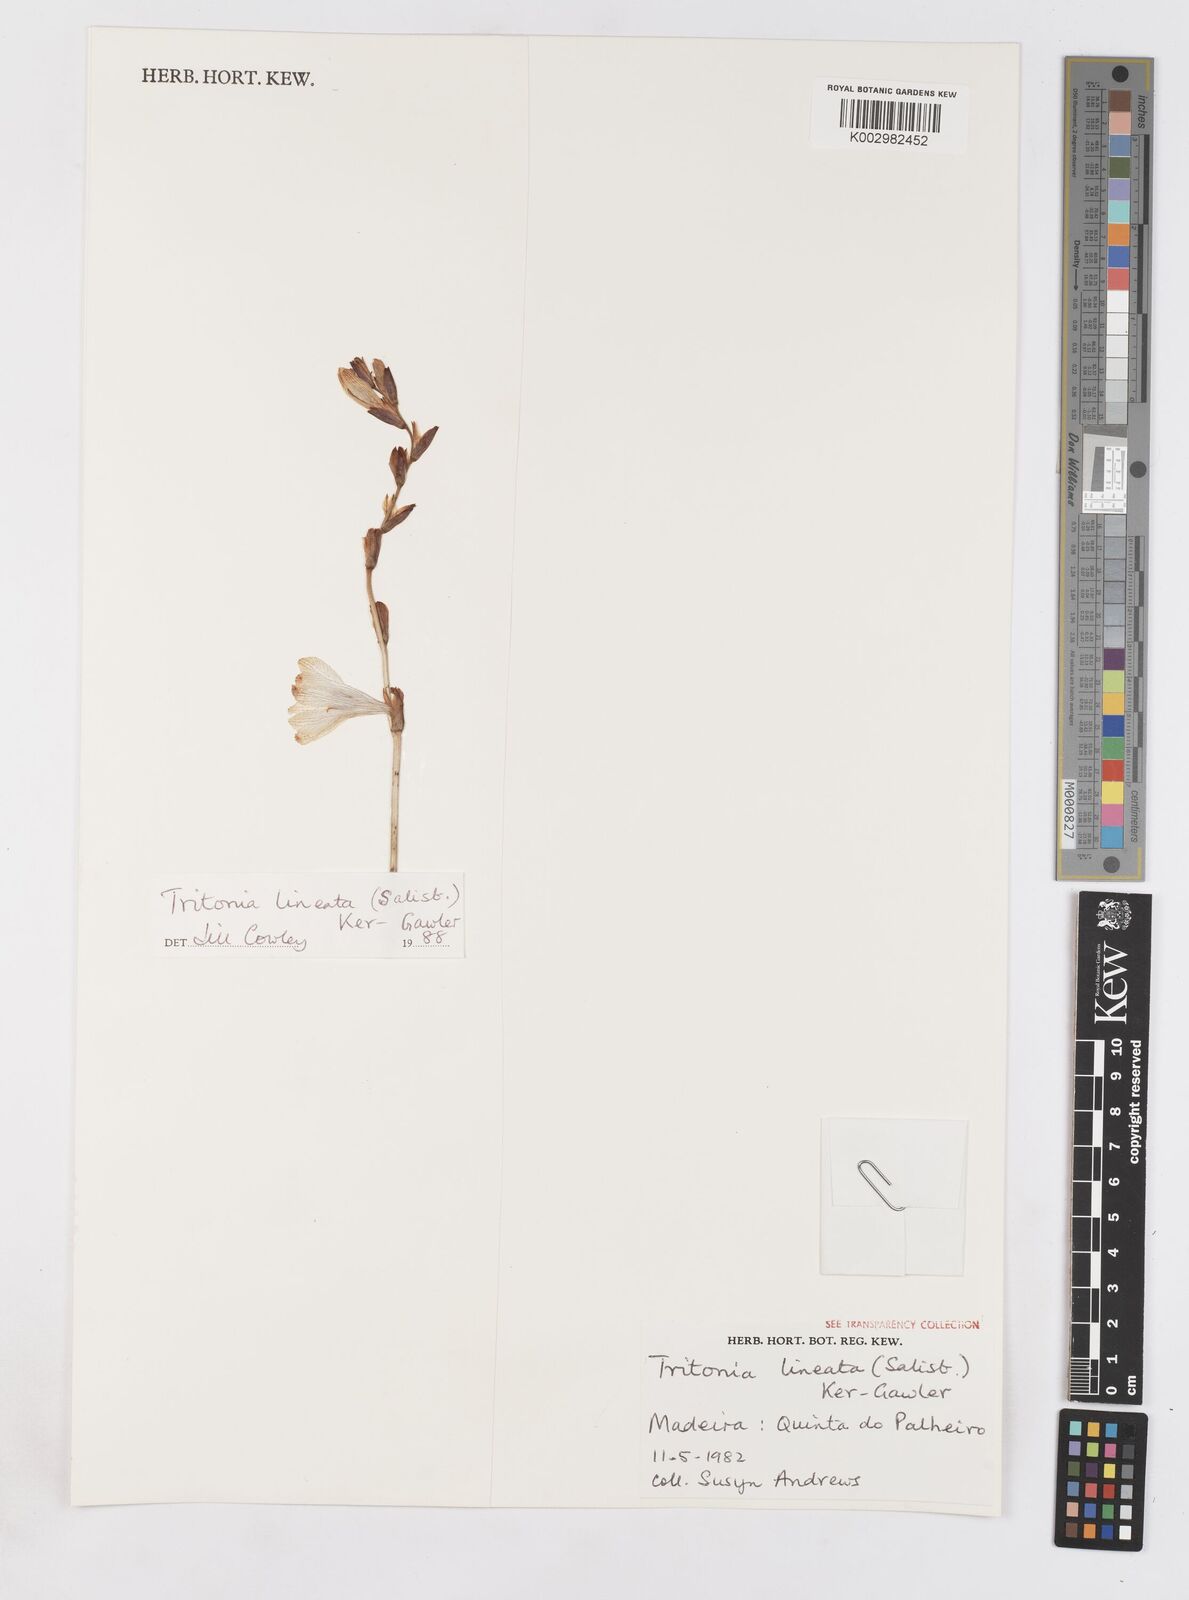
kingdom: Plantae
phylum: Tracheophyta
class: Liliopsida
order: Asparagales
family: Iridaceae
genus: Tritonia
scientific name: Tritonia gladiolaris
